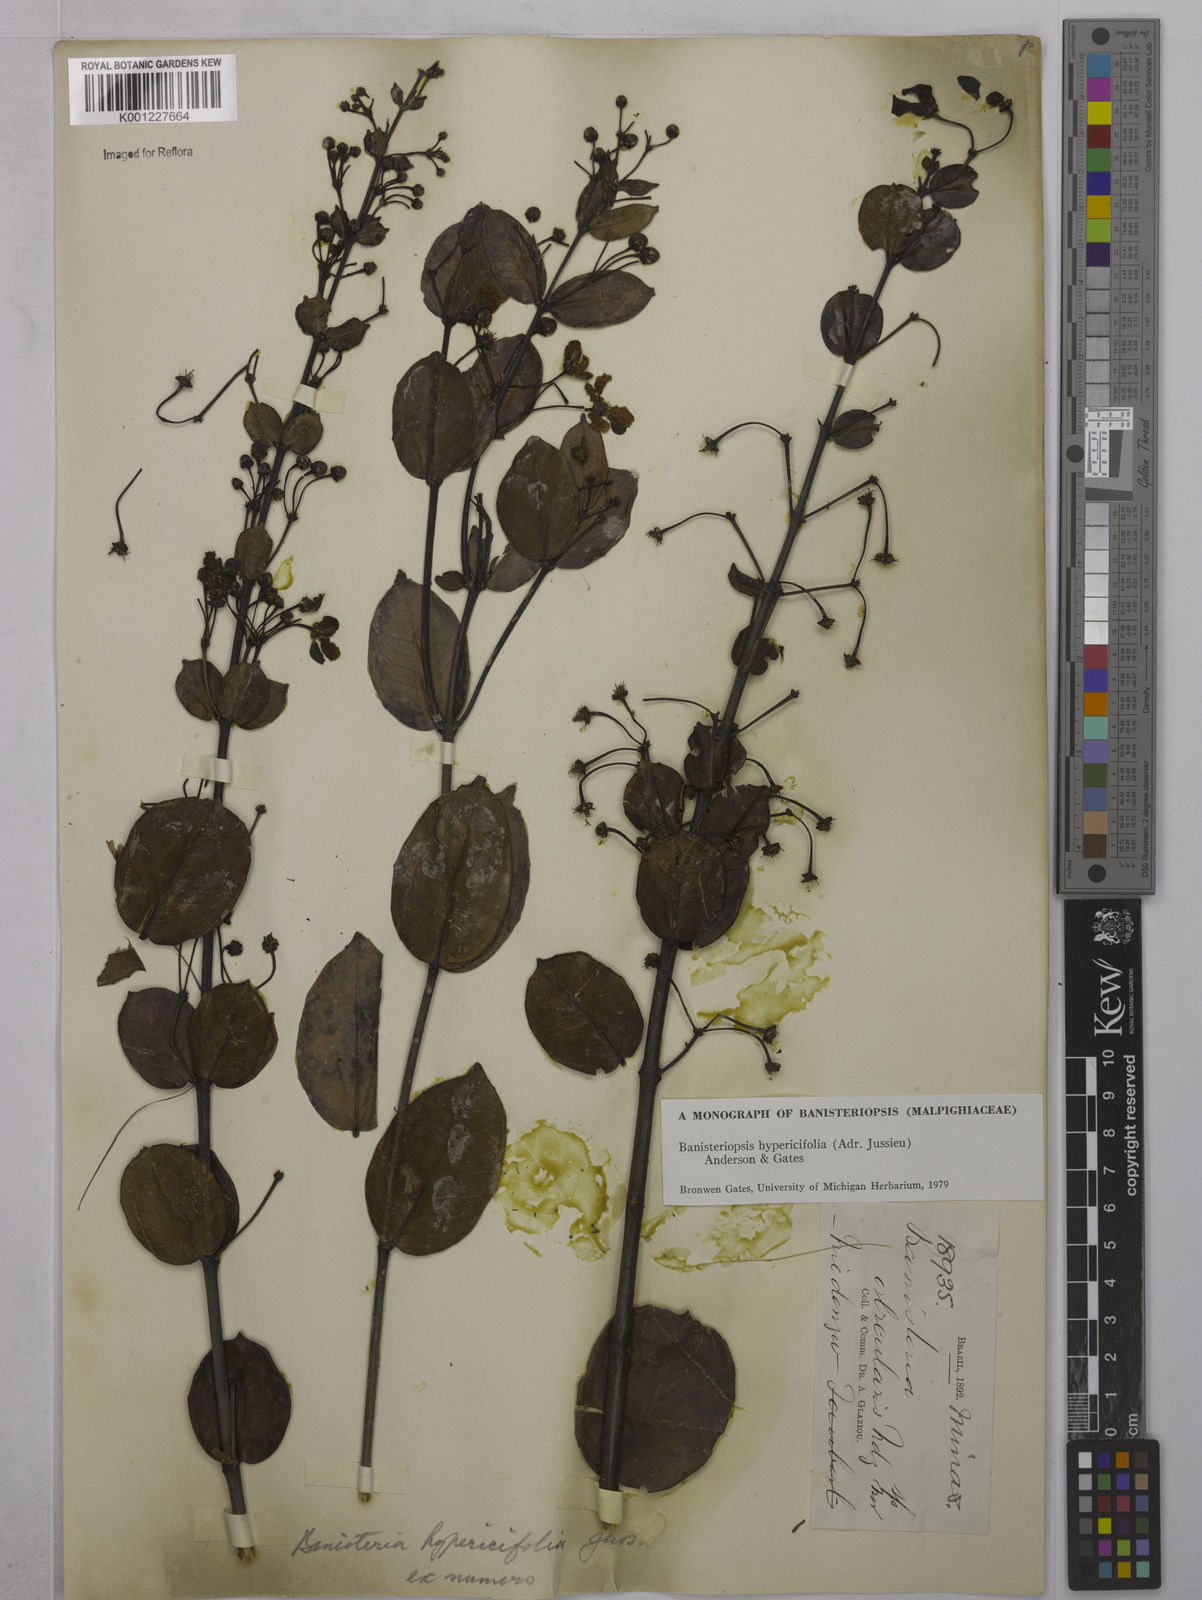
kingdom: Plantae
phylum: Tracheophyta
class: Magnoliopsida
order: Malpighiales
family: Malpighiaceae
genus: Diplopterys
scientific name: Diplopterys hypericifolia
